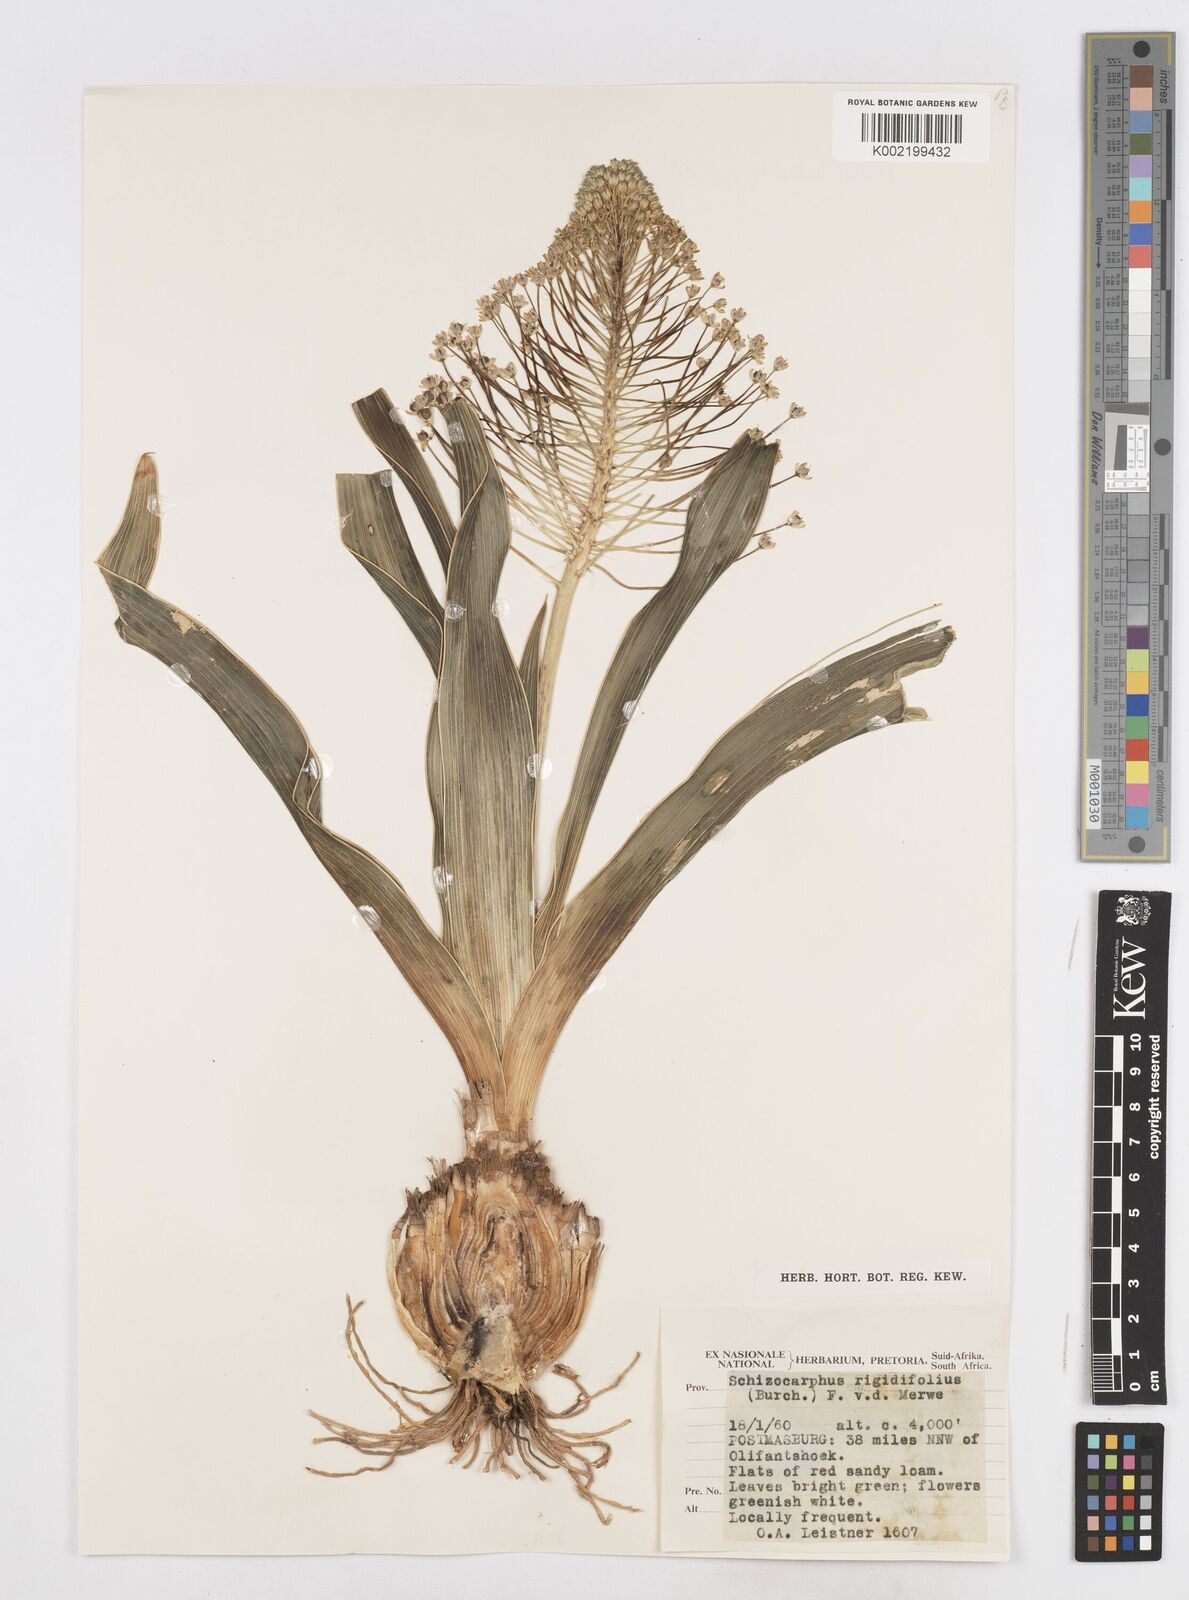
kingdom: Plantae
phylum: Tracheophyta
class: Liliopsida
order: Asparagales
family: Asparagaceae
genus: Schizocarphus
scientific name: Schizocarphus nervosus
